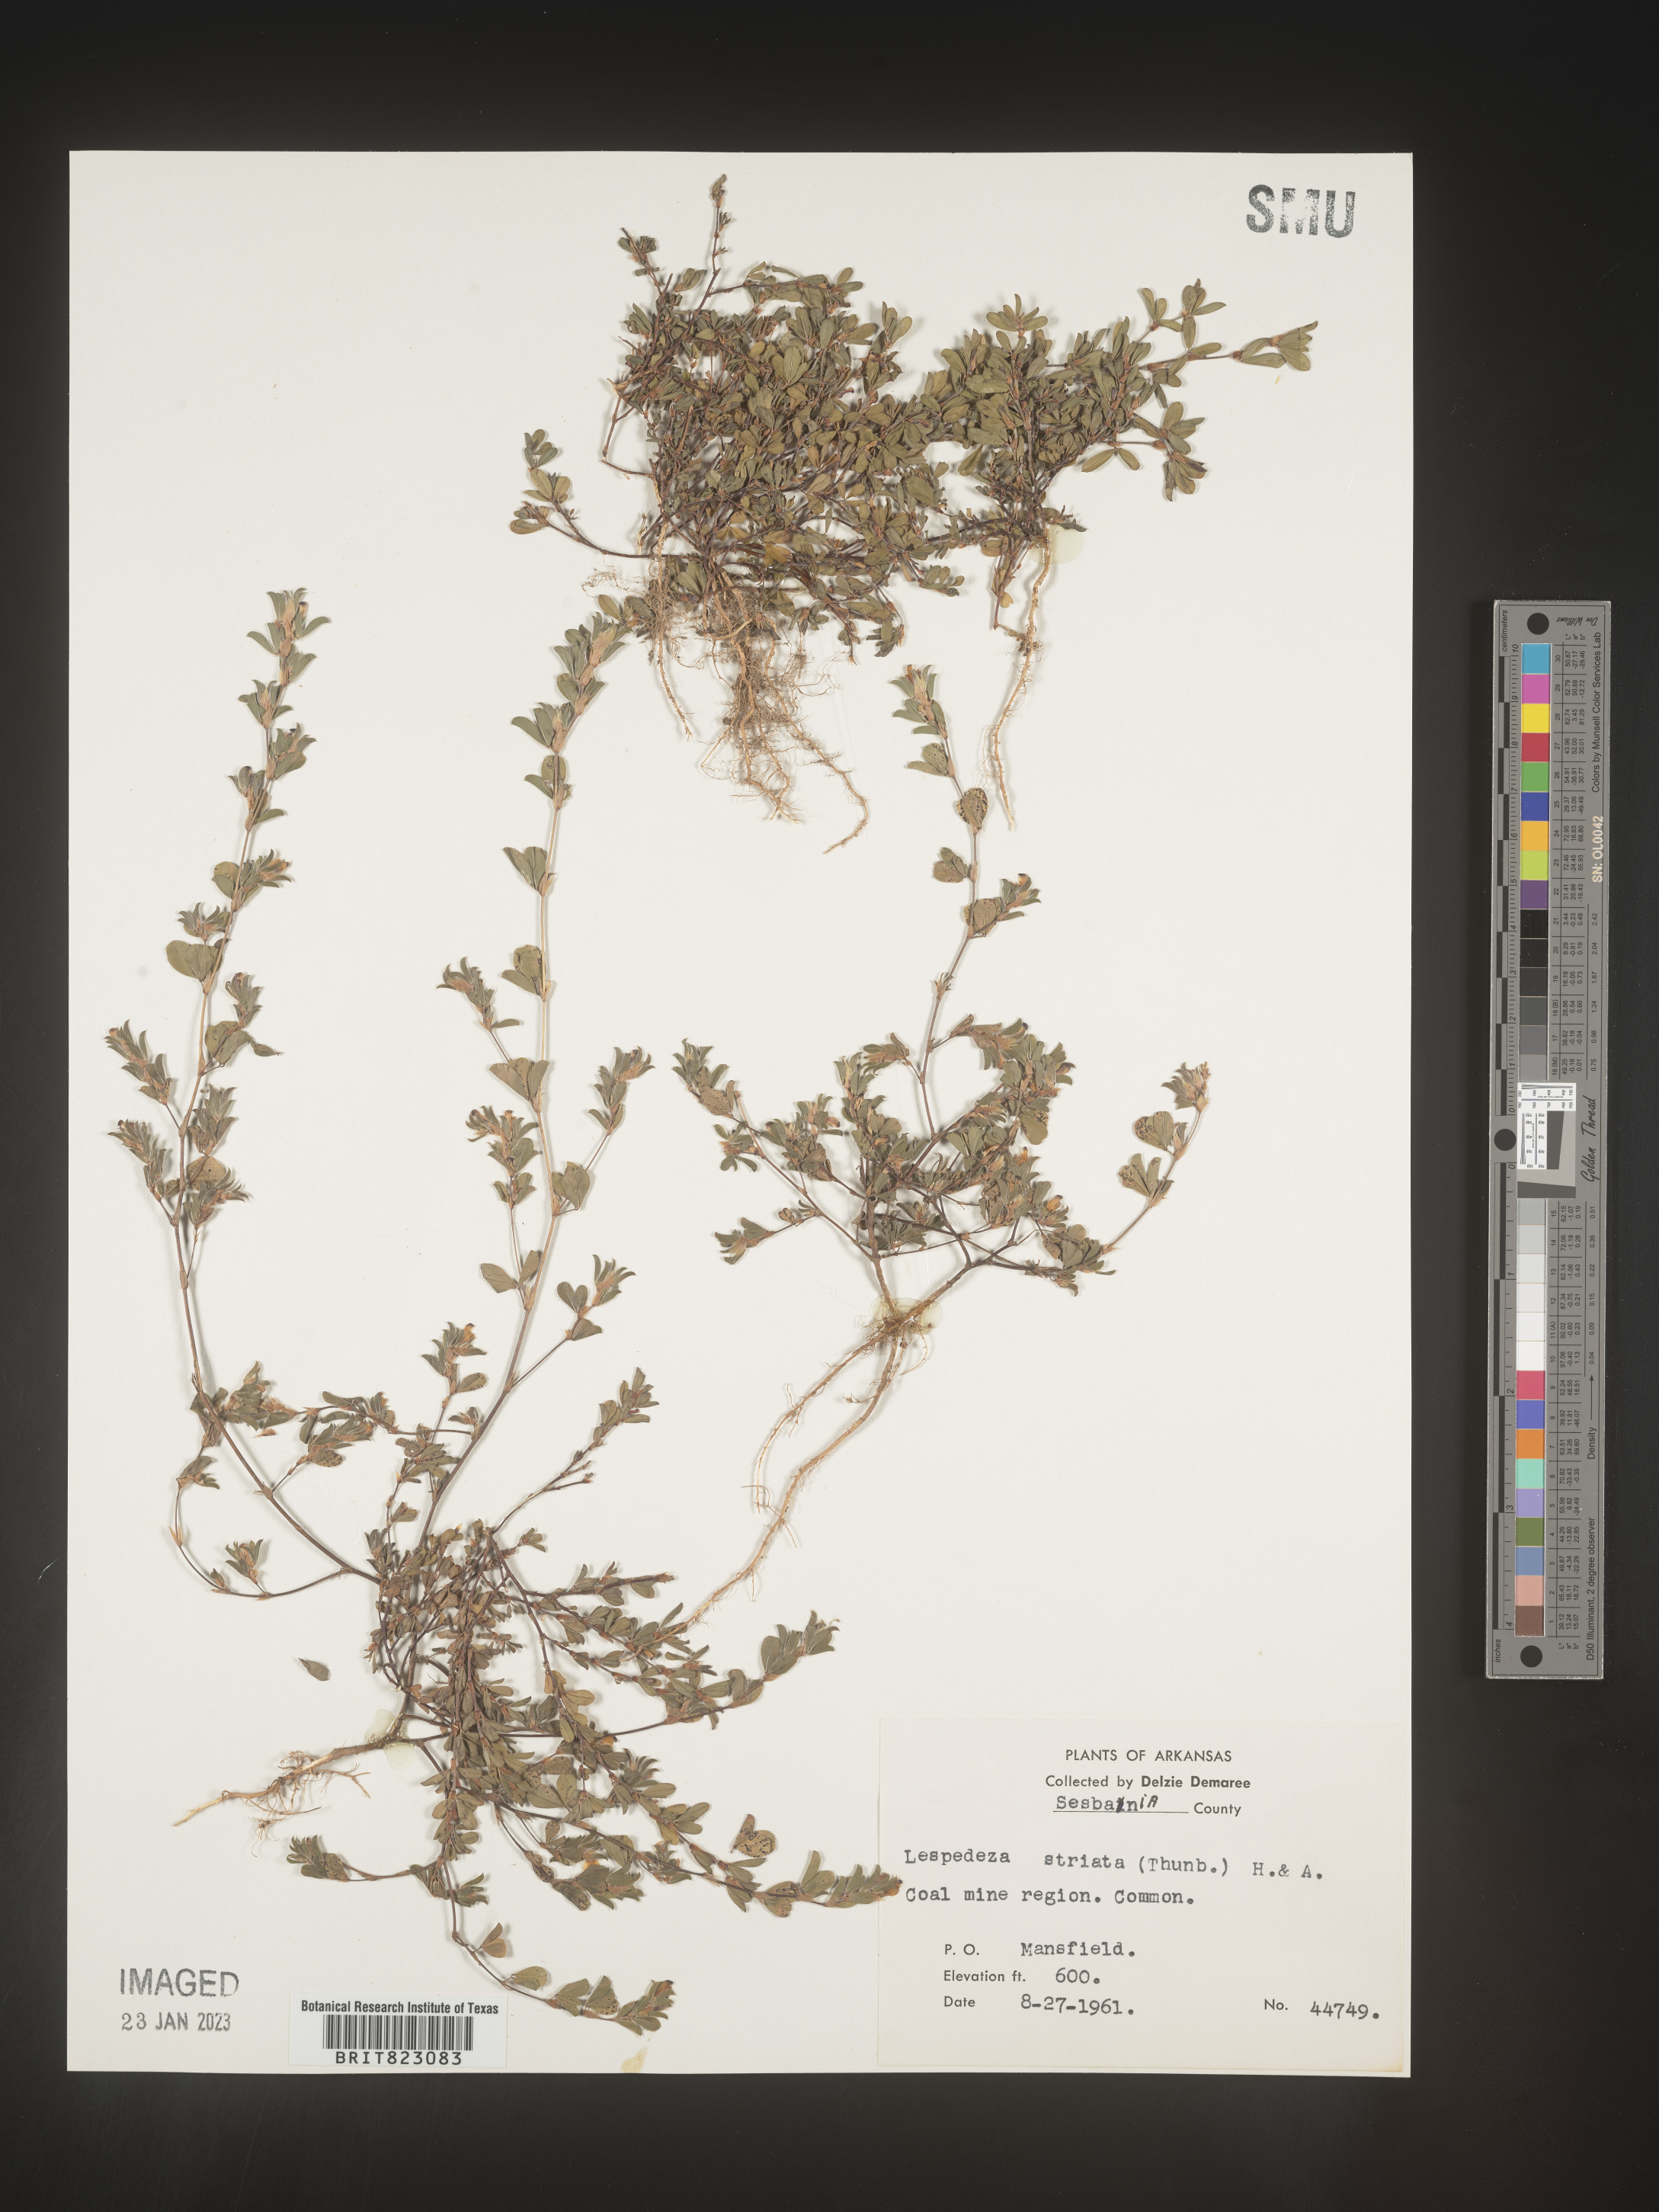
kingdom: Plantae
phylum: Tracheophyta
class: Magnoliopsida
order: Fabales
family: Fabaceae
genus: Kummerowia
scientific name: Kummerowia striata
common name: Japanese clover
